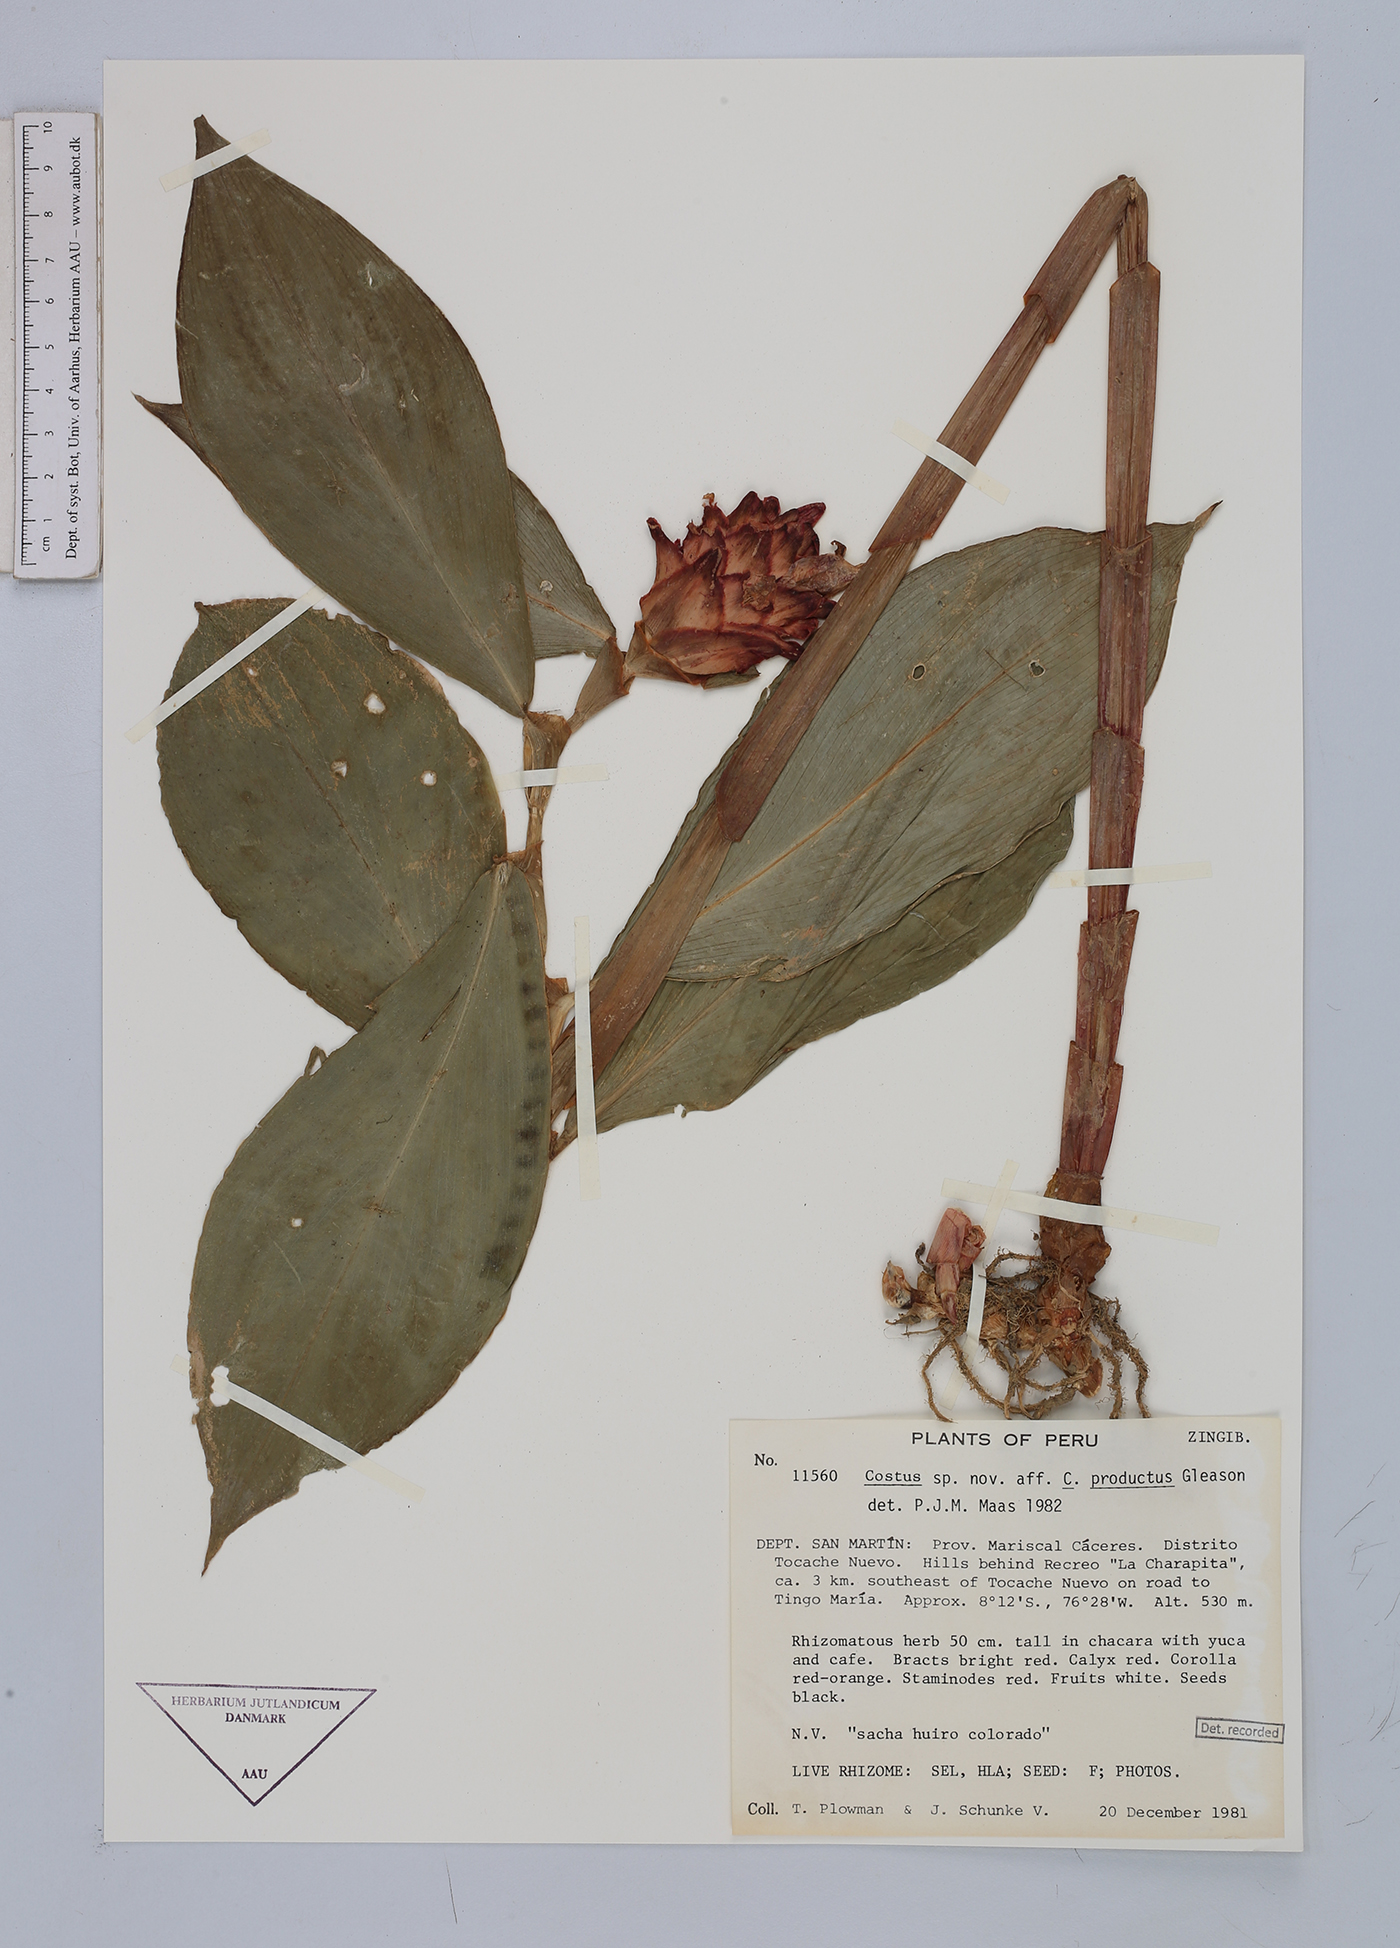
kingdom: Plantae
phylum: Tracheophyta
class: Liliopsida
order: Zingiberales
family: Costaceae
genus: Costus
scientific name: Costus productus
